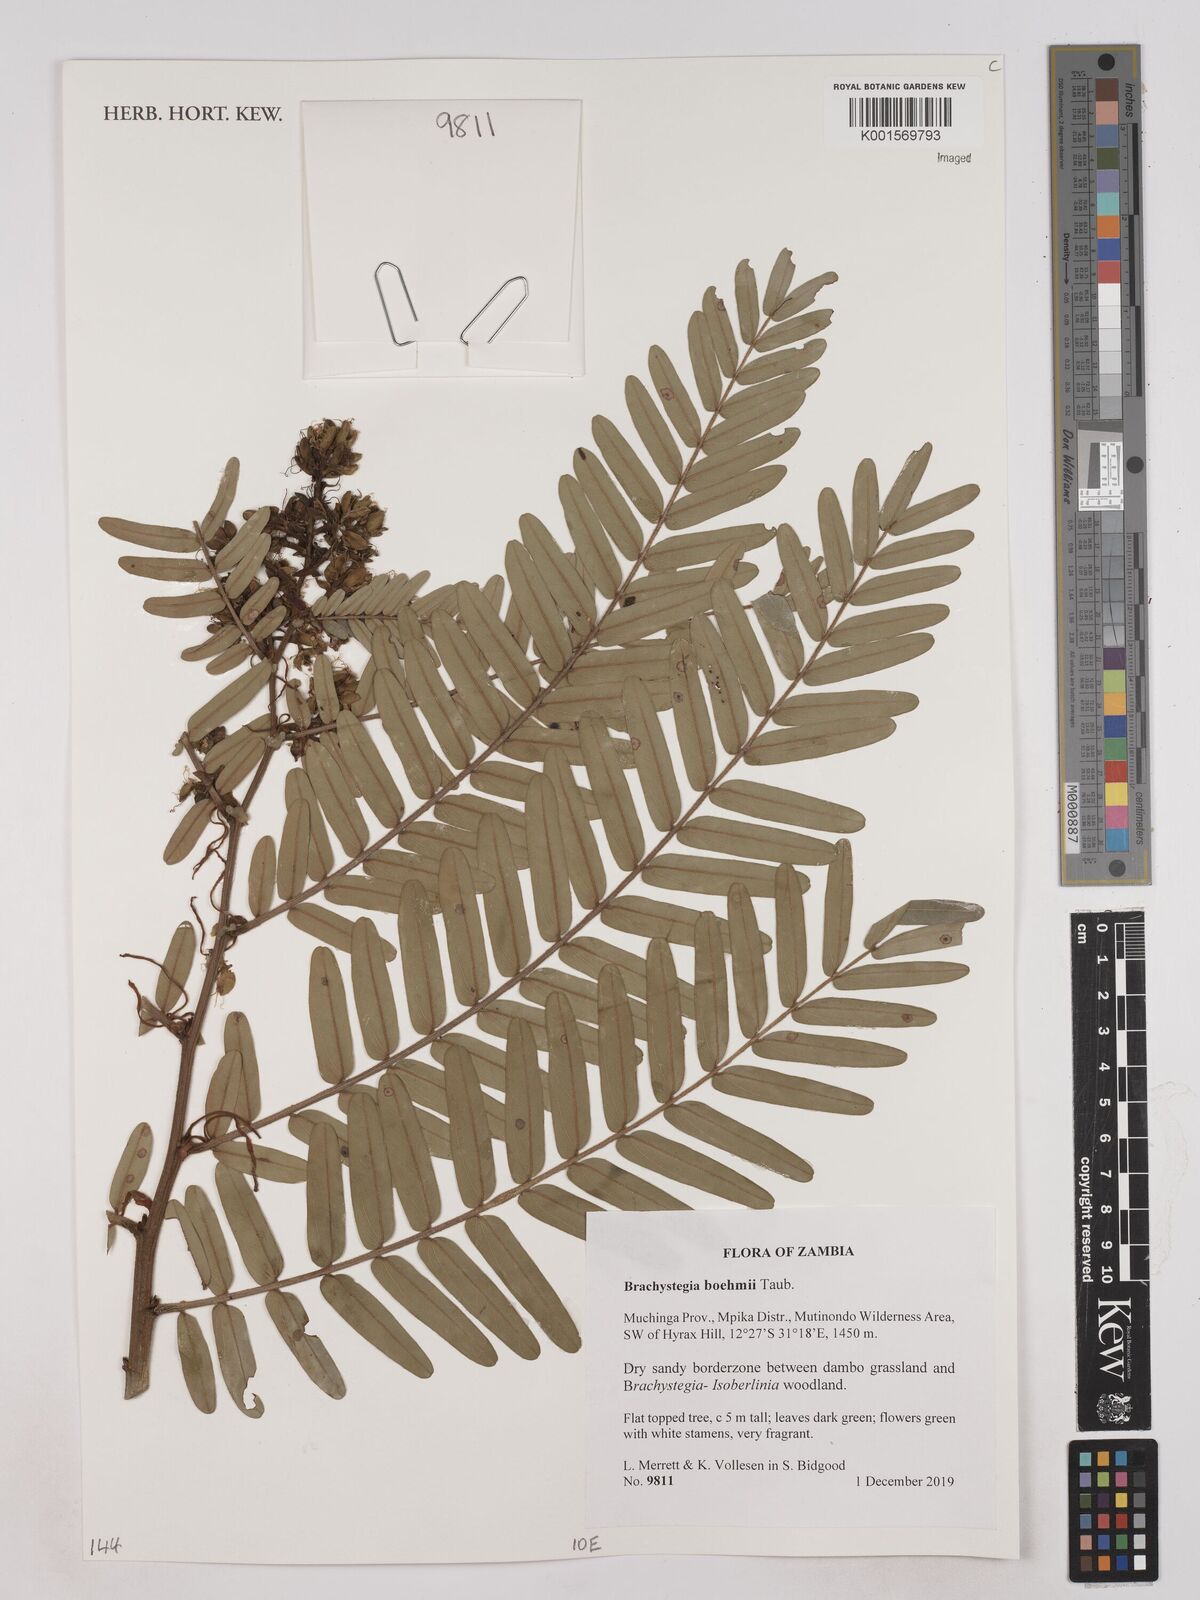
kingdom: Plantae
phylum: Tracheophyta
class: Magnoliopsida
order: Fabales
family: Fabaceae
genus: Brachystegia
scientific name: Brachystegia boehmii
